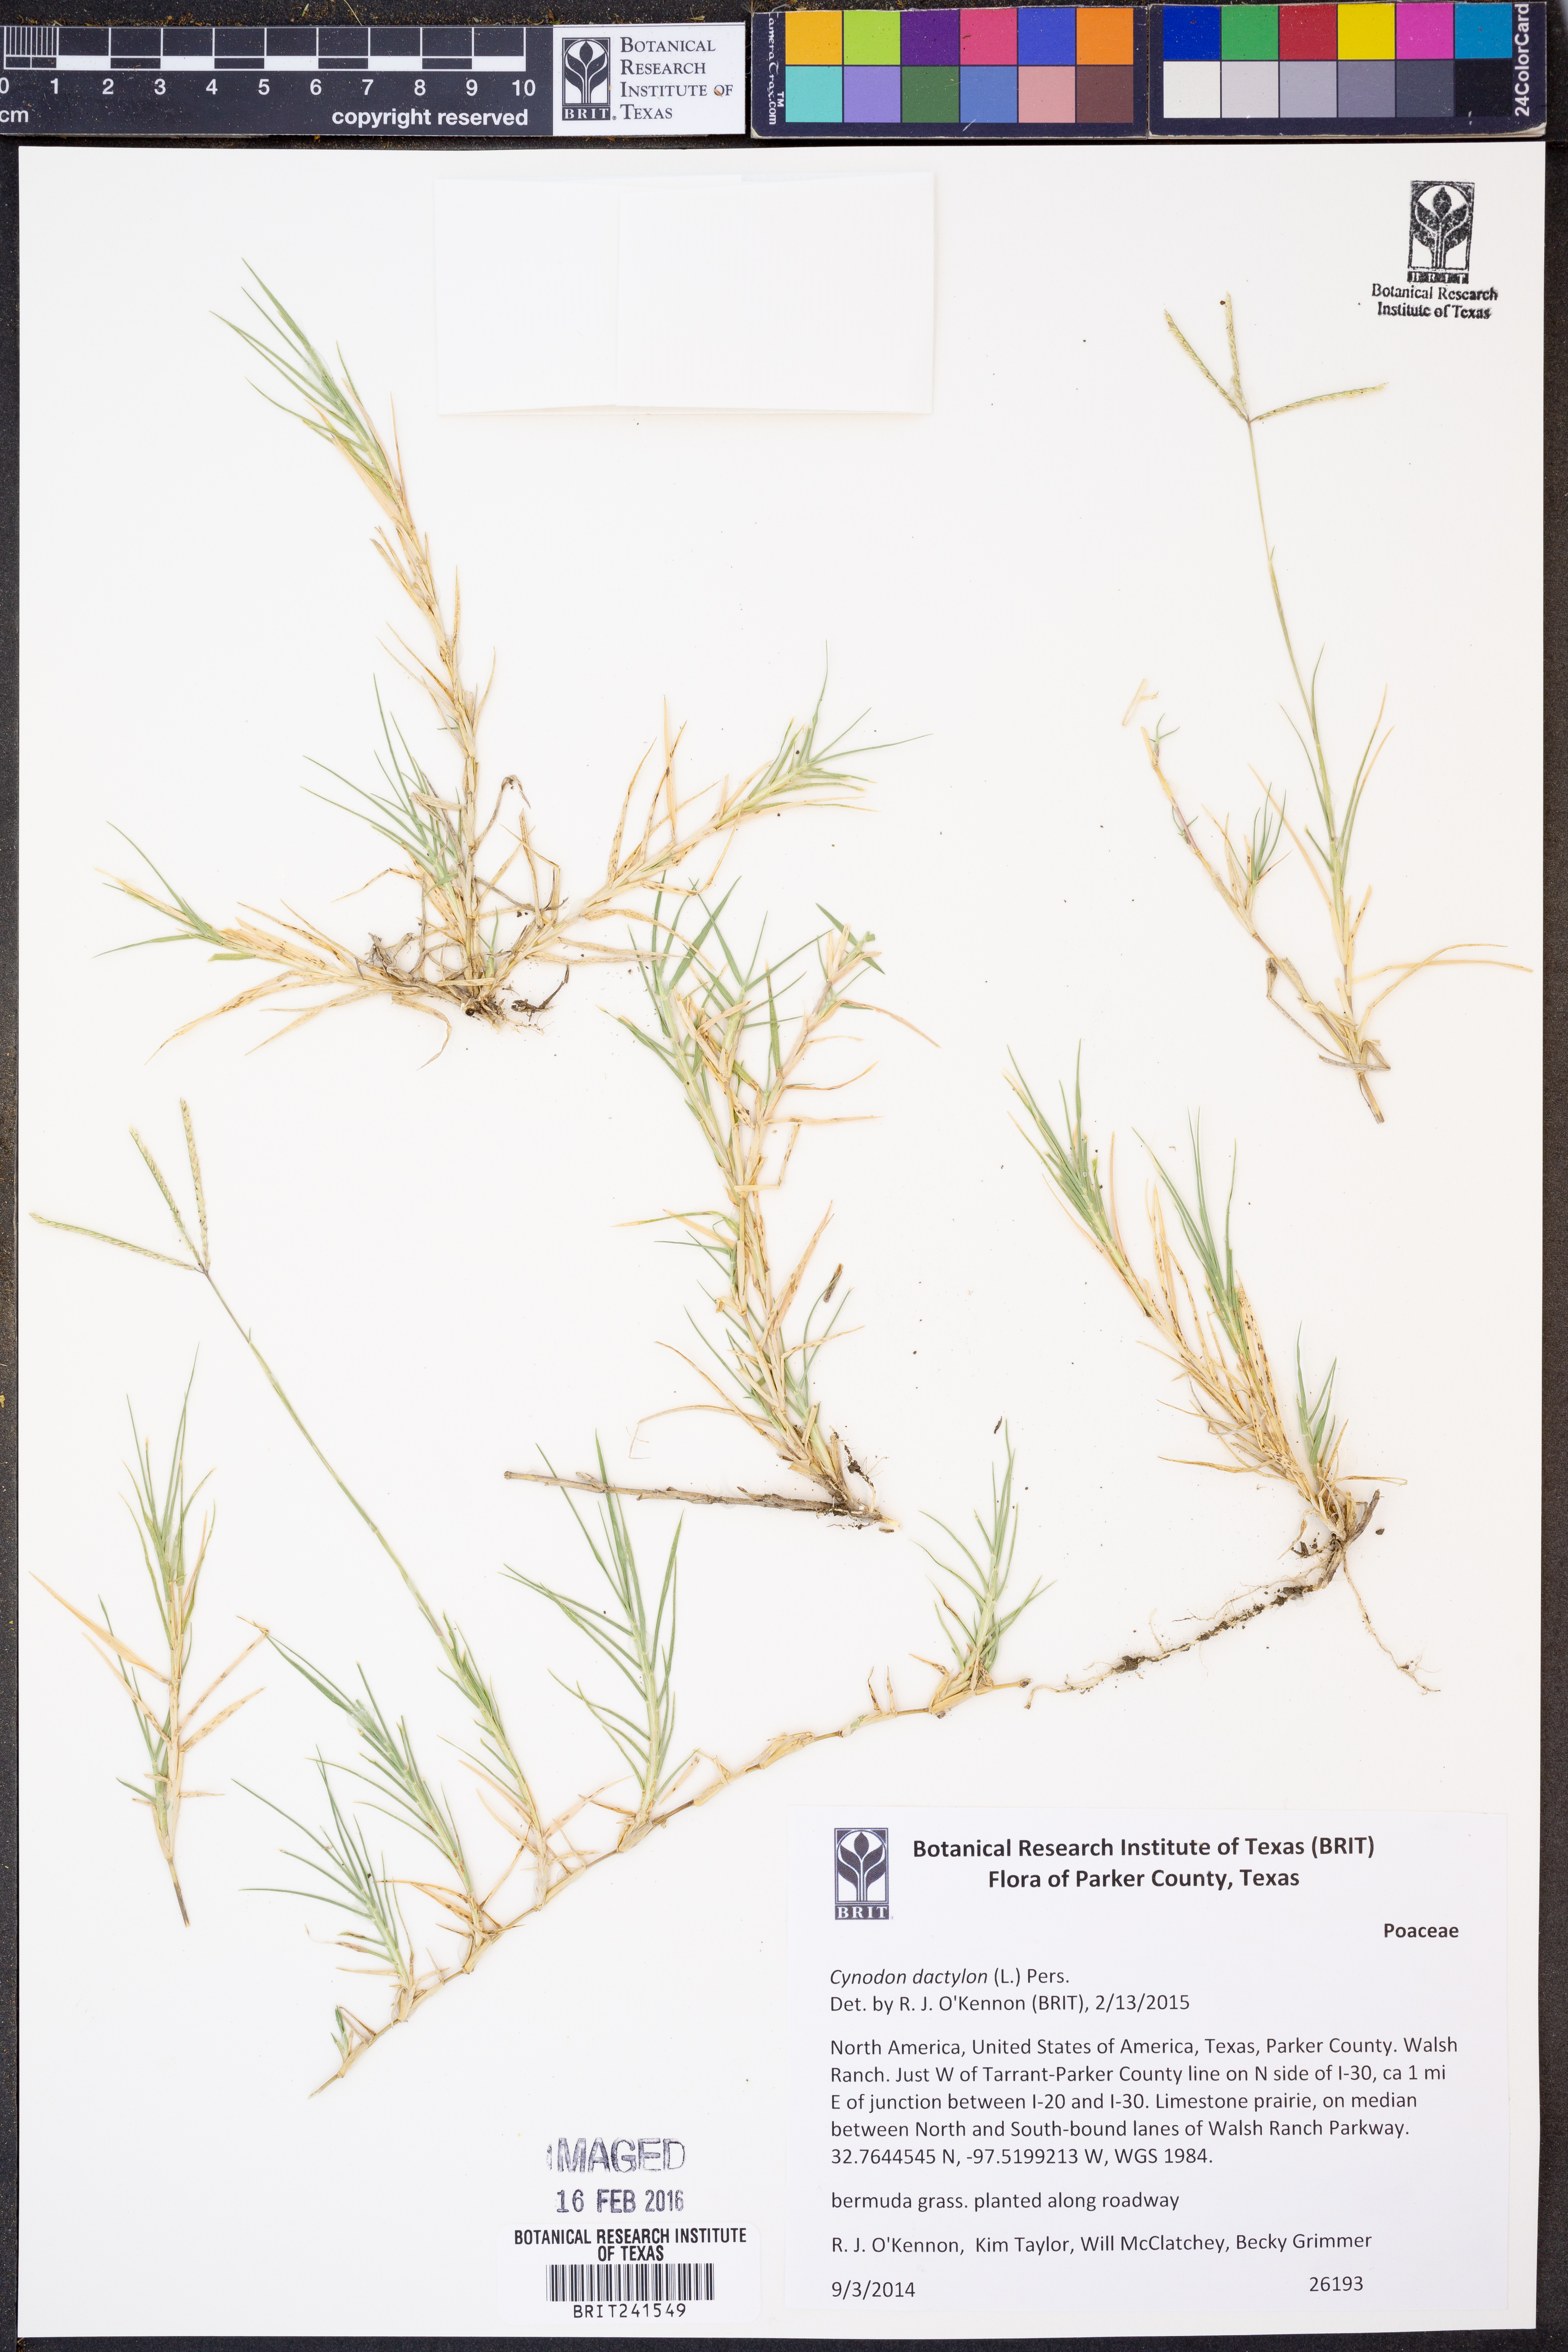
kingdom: Plantae
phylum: Tracheophyta
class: Liliopsida
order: Poales
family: Poaceae
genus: Cynodon
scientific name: Cynodon dactylon
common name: Bermuda grass
